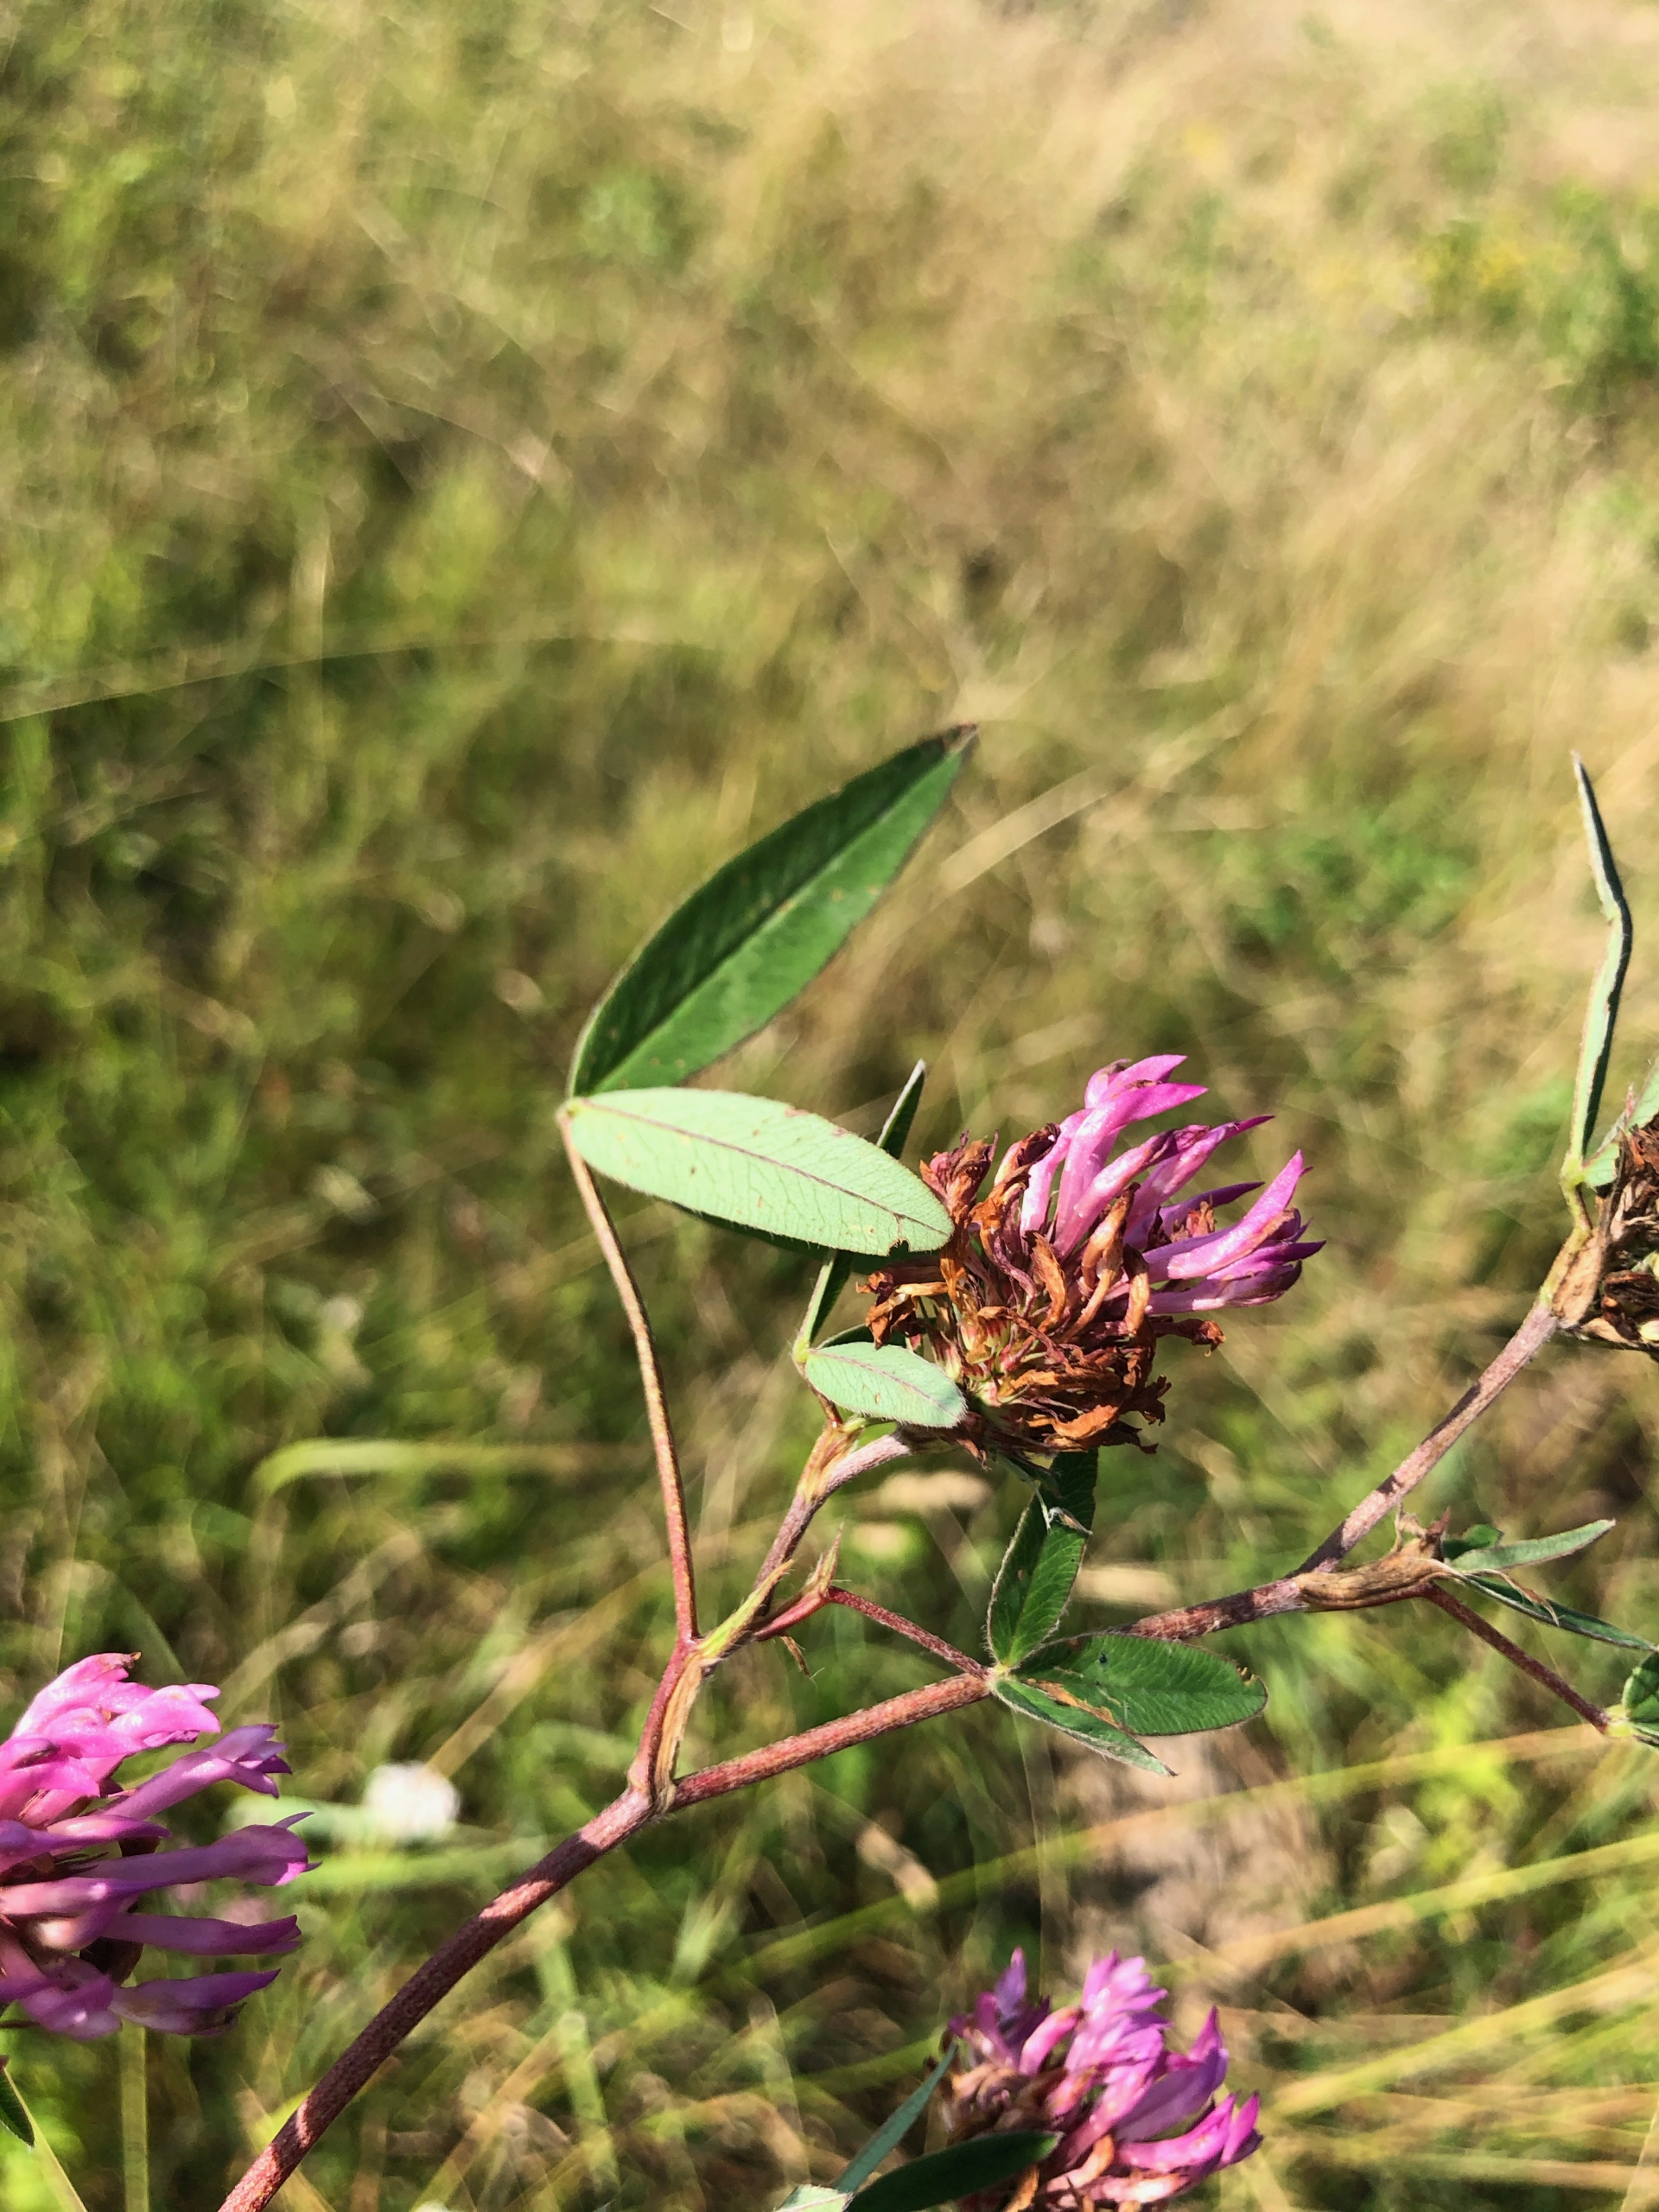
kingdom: Plantae
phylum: Tracheophyta
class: Magnoliopsida
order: Fabales
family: Fabaceae
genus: Trifolium
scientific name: Trifolium medium
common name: Bugtet kløver
